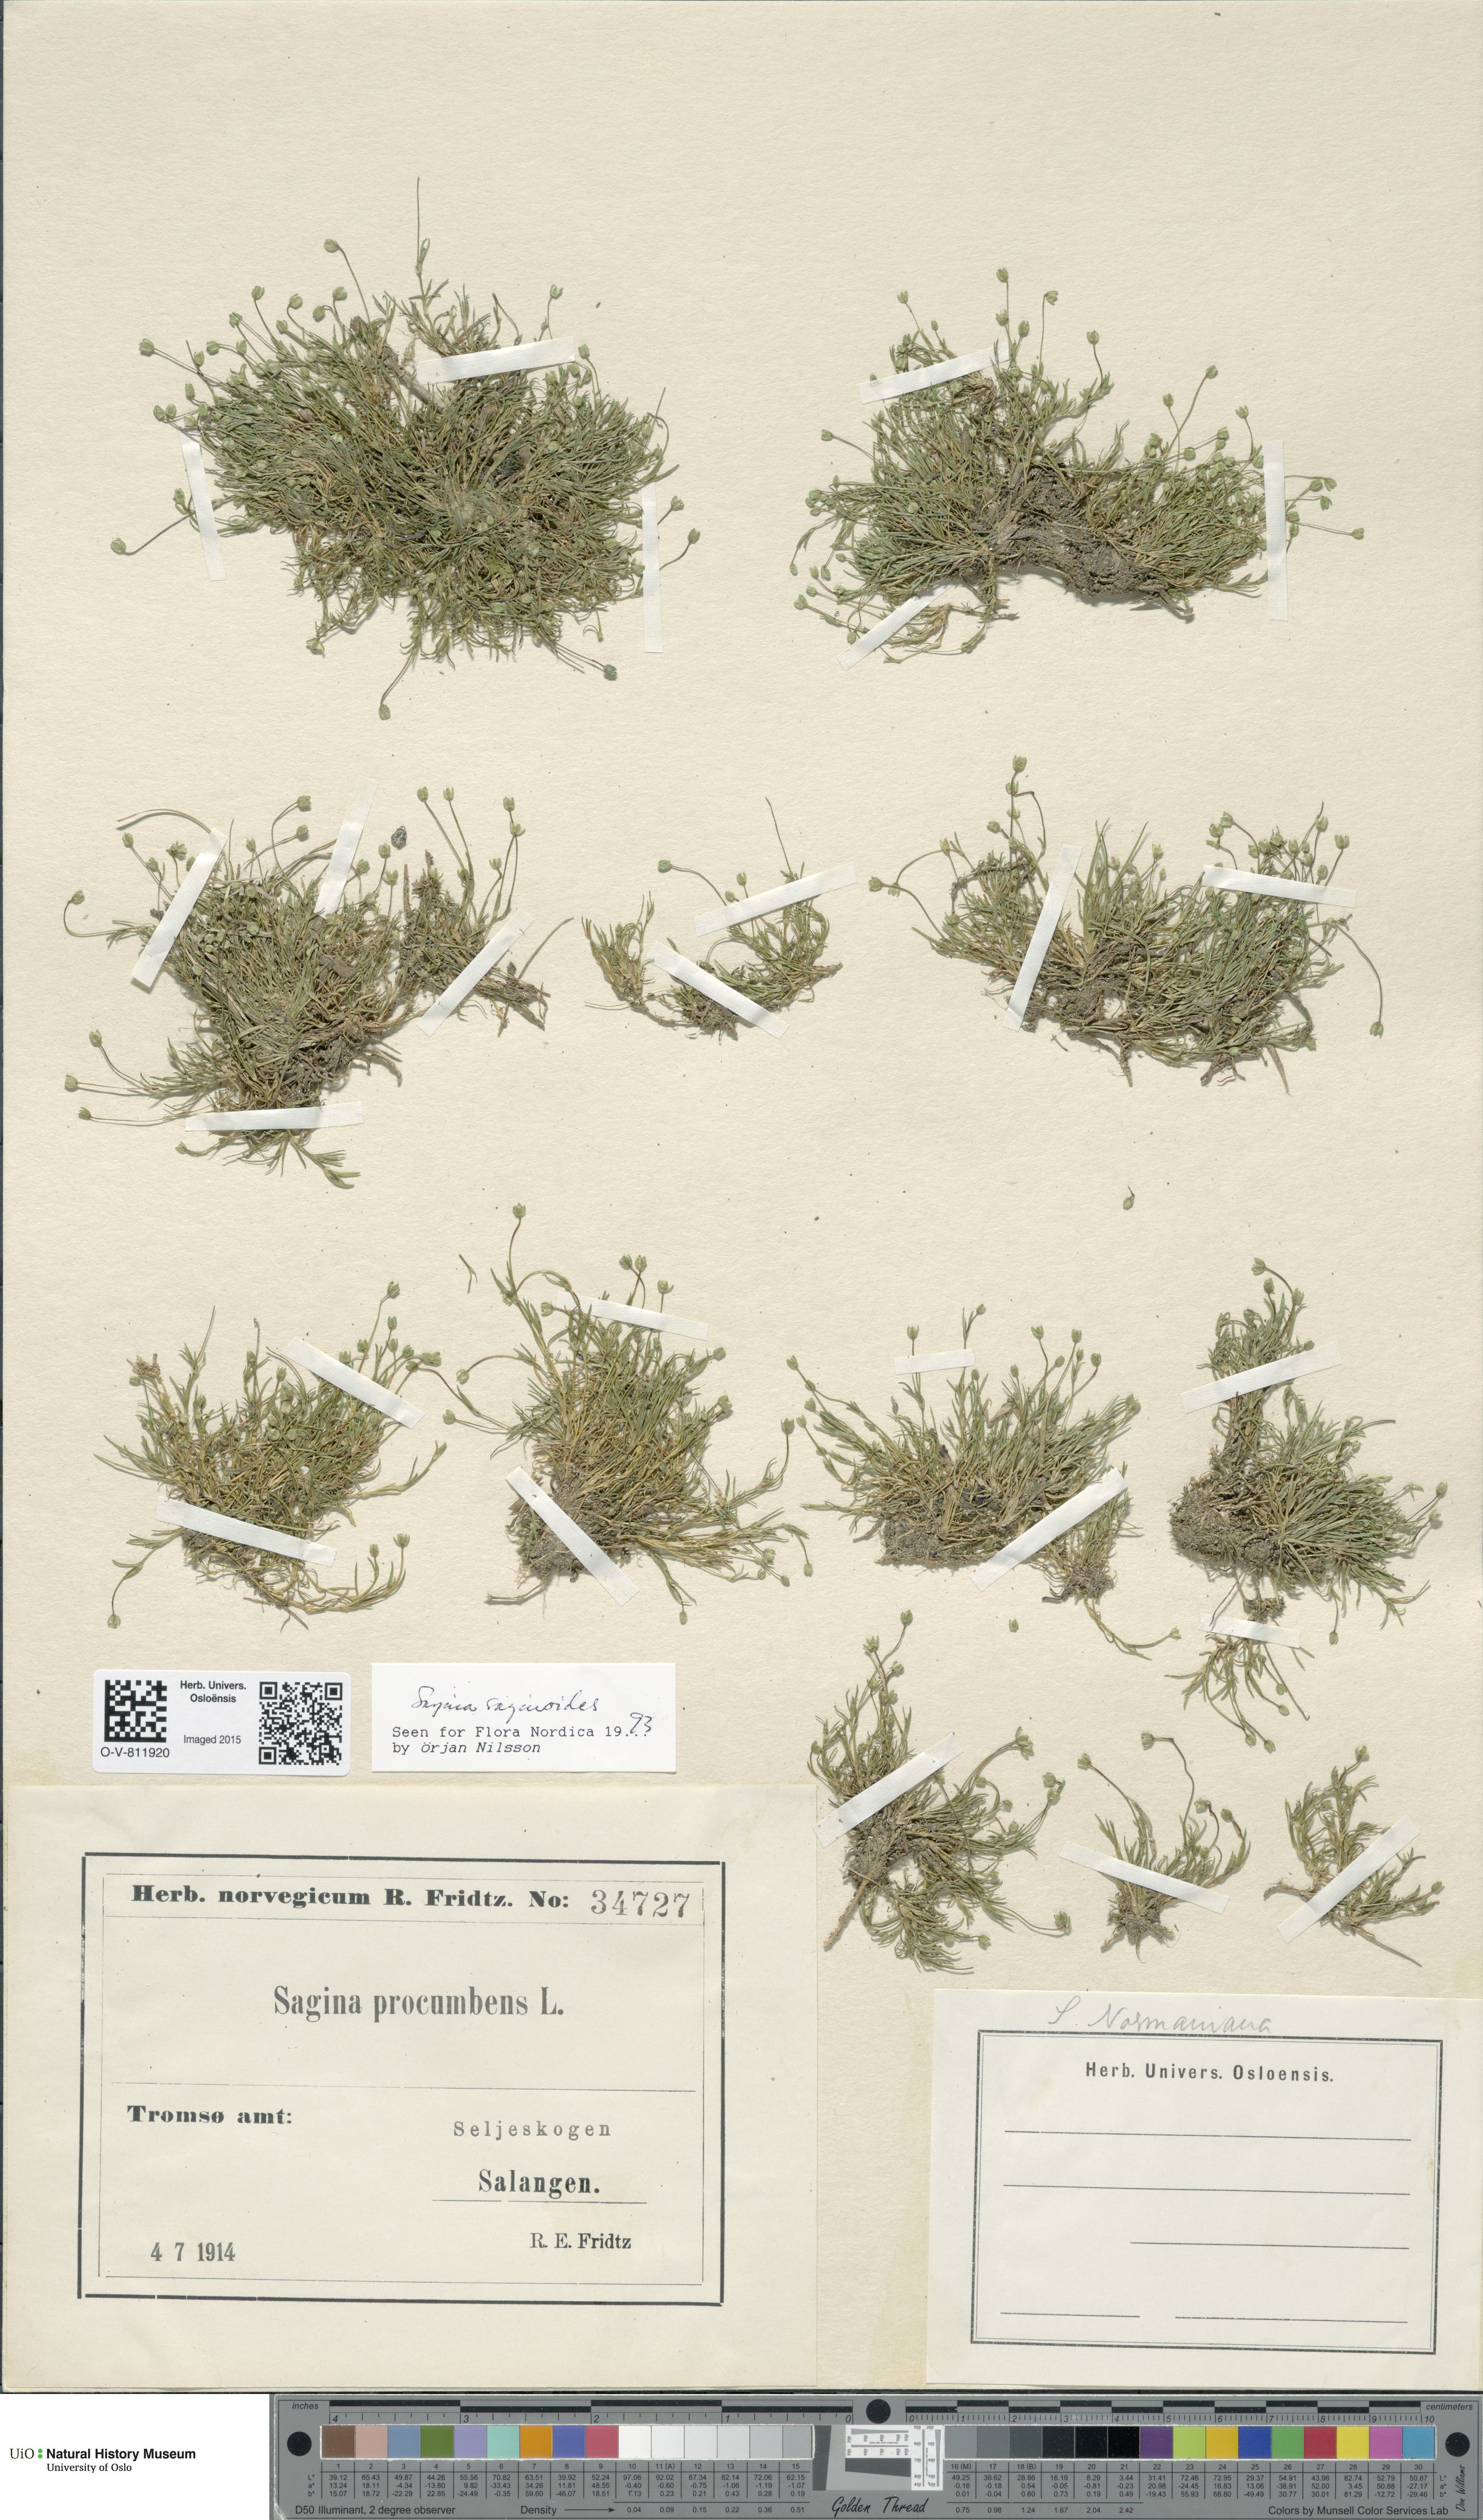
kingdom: Plantae
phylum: Tracheophyta
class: Magnoliopsida
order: Caryophyllales
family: Caryophyllaceae
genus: Sagina
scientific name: Sagina saginoides
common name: Alpine pearlwort
